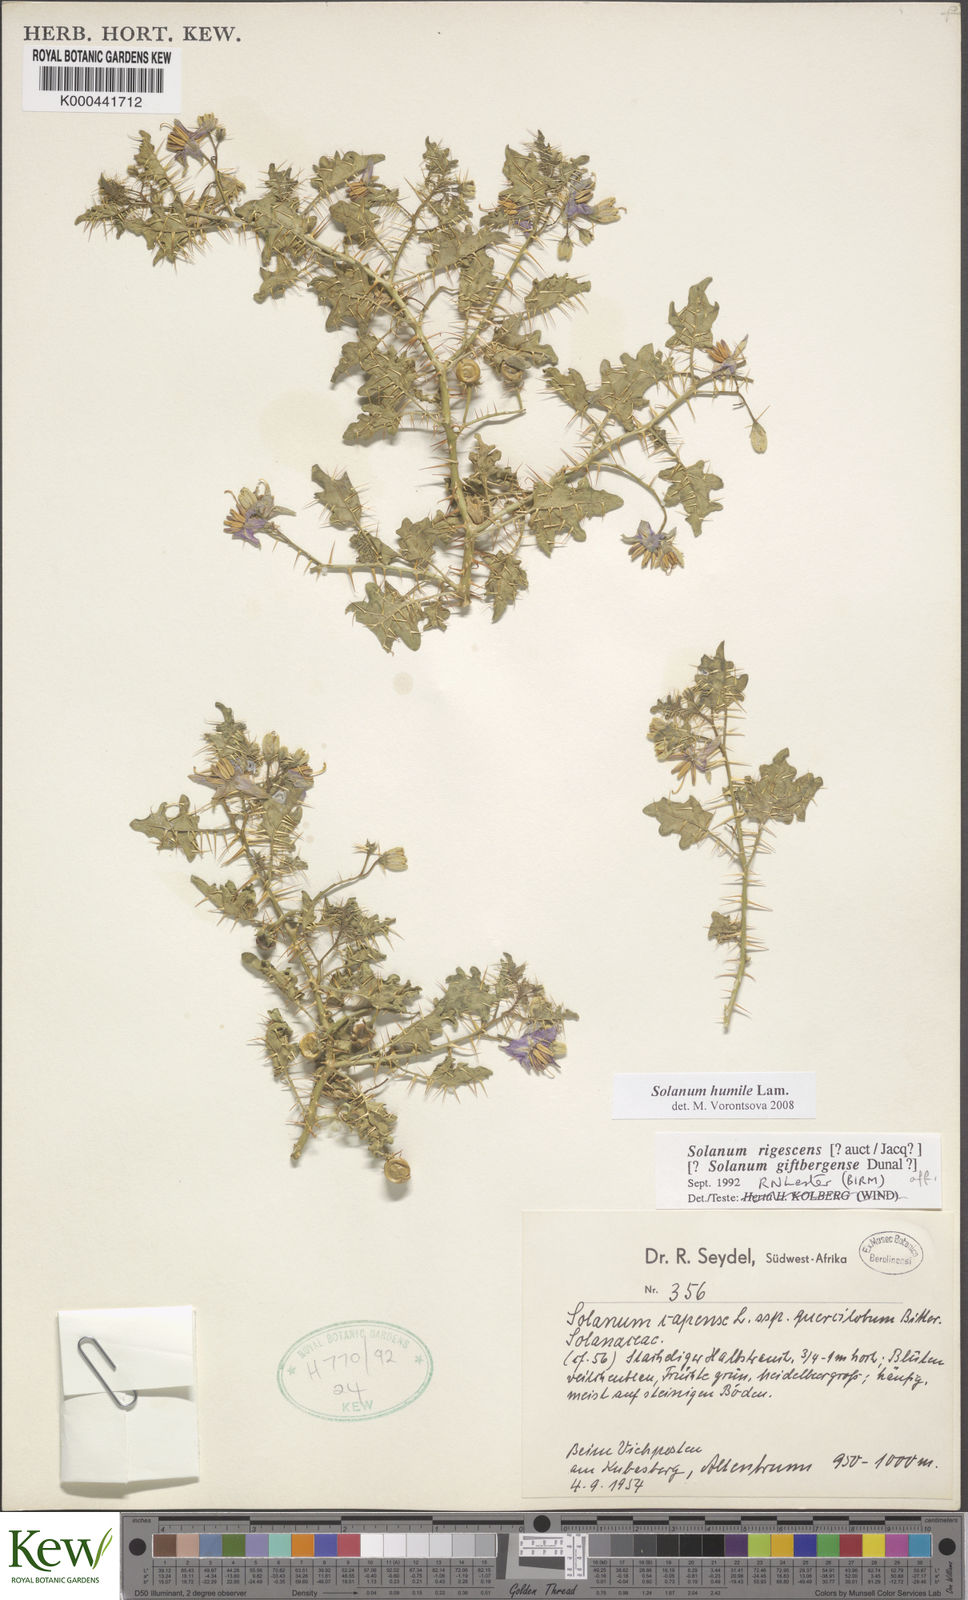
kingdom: Plantae
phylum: Tracheophyta
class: Magnoliopsida
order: Solanales
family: Solanaceae
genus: Solanum
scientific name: Solanum humile
